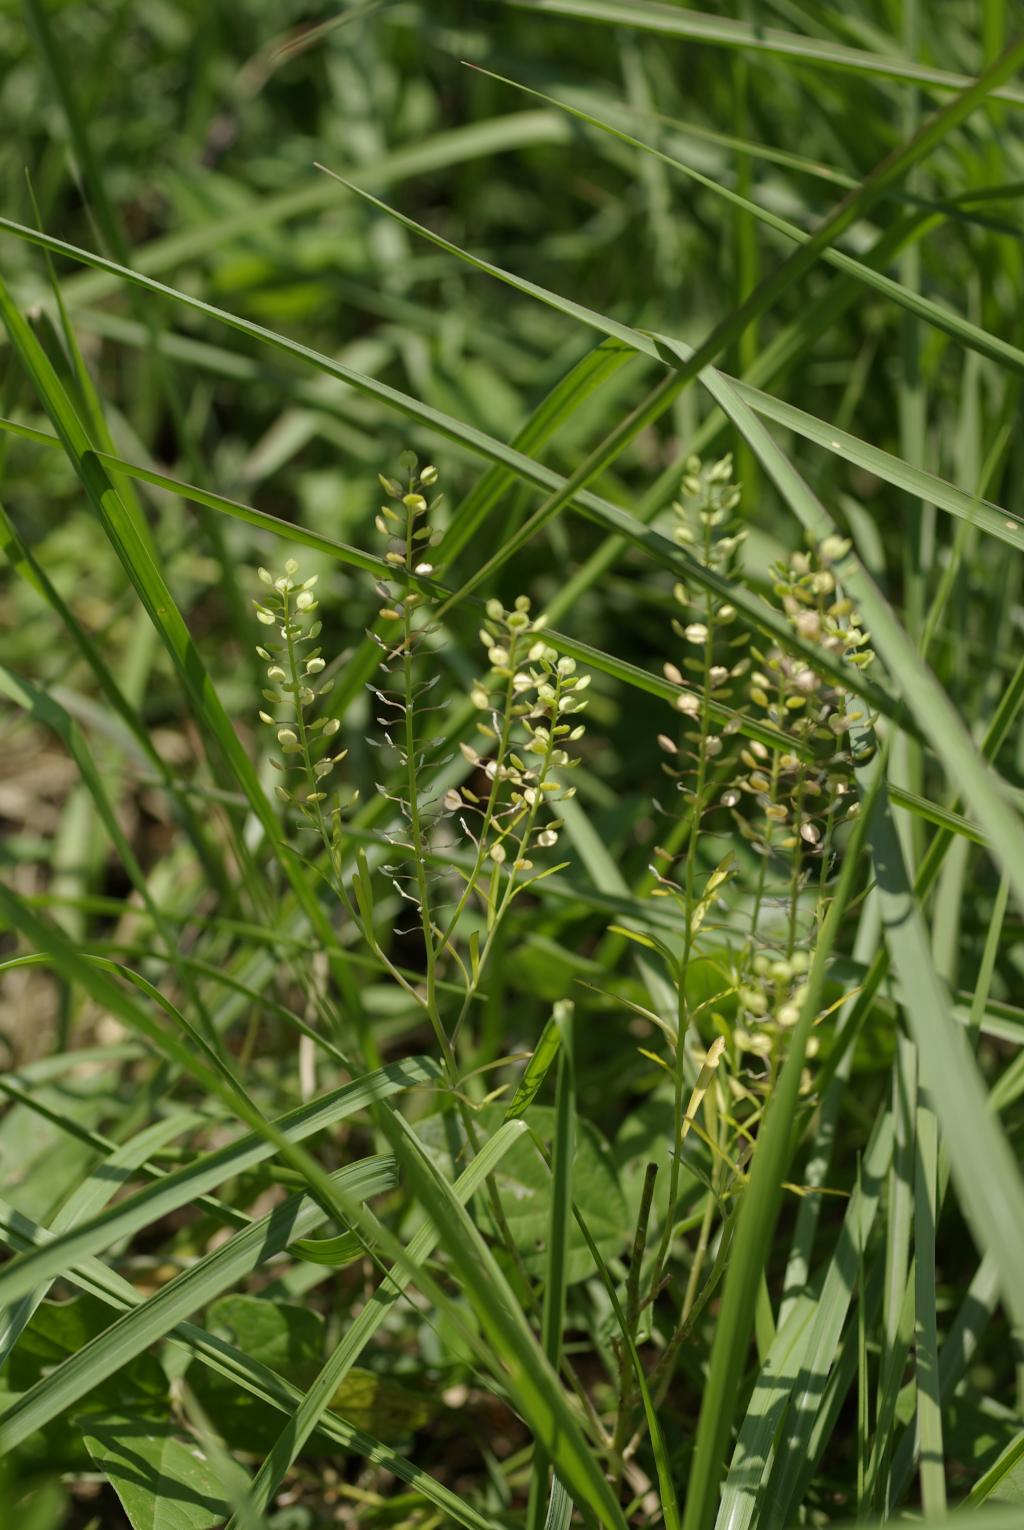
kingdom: Plantae
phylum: Tracheophyta
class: Magnoliopsida
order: Brassicales
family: Brassicaceae
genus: Lepidium
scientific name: Lepidium virginicum
